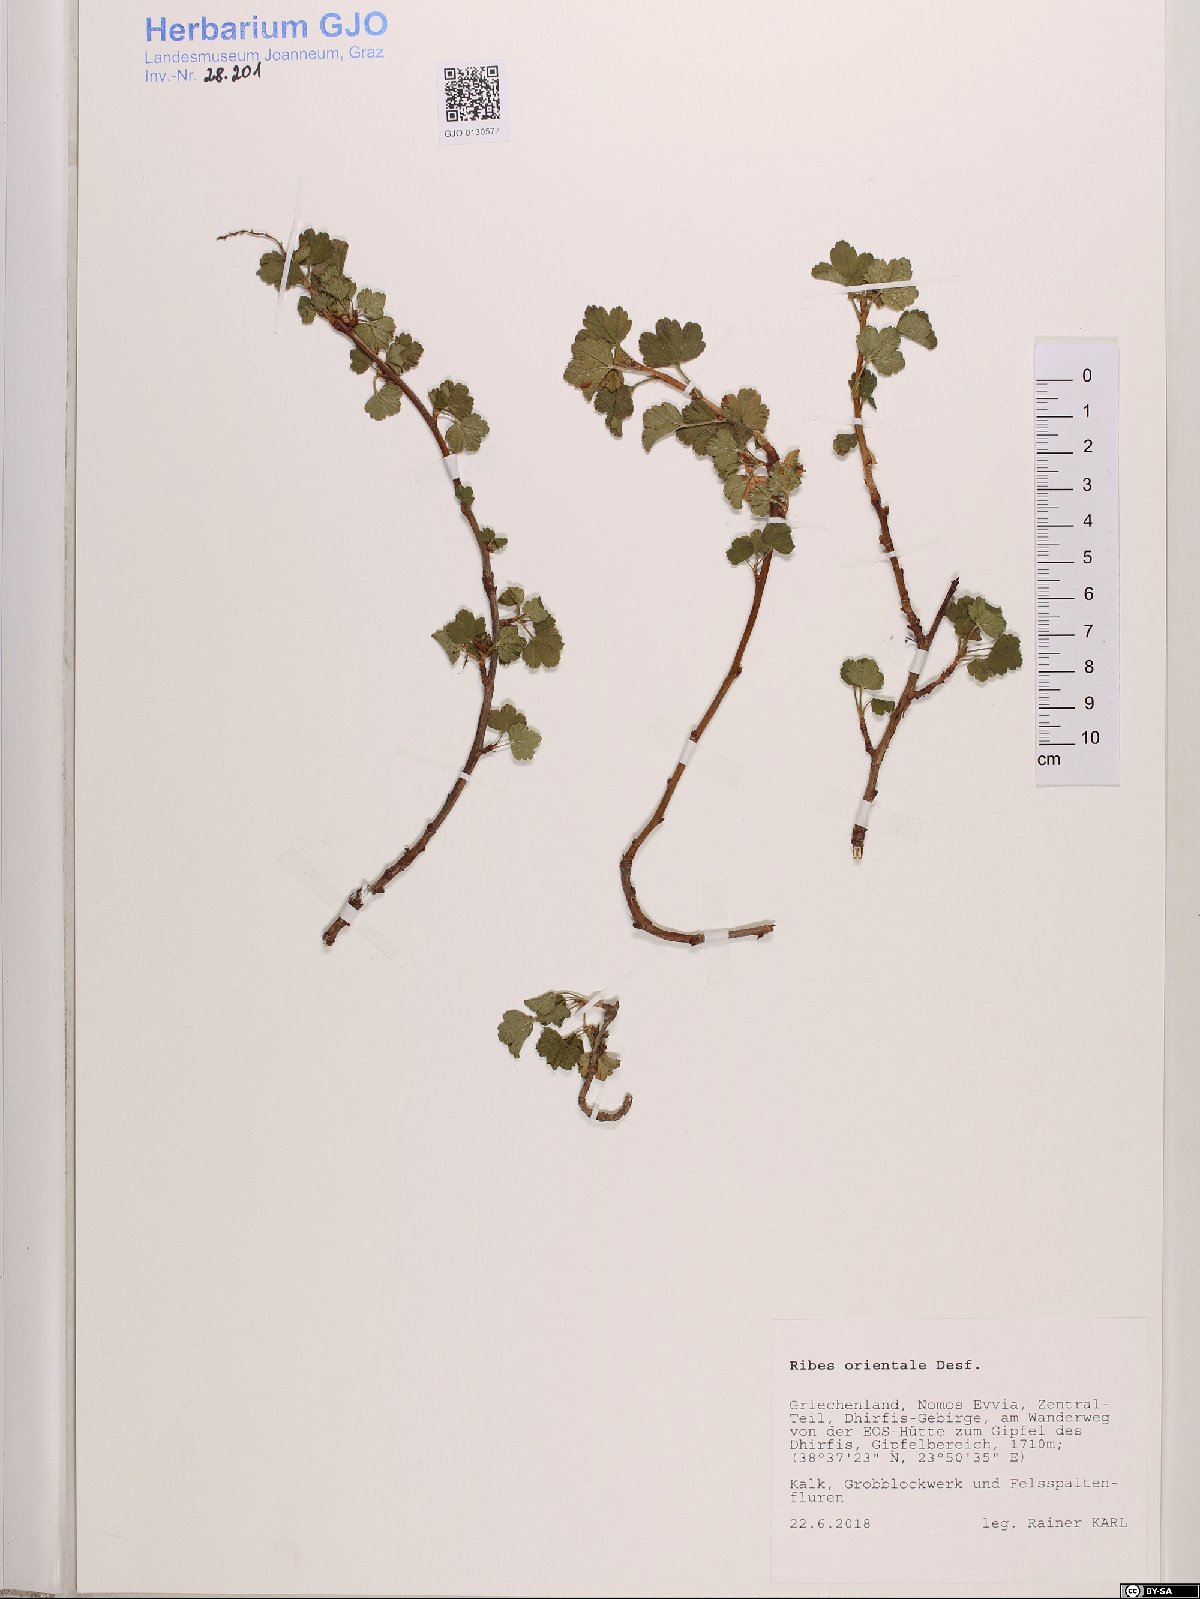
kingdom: Plantae
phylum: Tracheophyta
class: Magnoliopsida
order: Saxifragales
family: Grossulariaceae
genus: Ribes
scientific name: Ribes orientale
